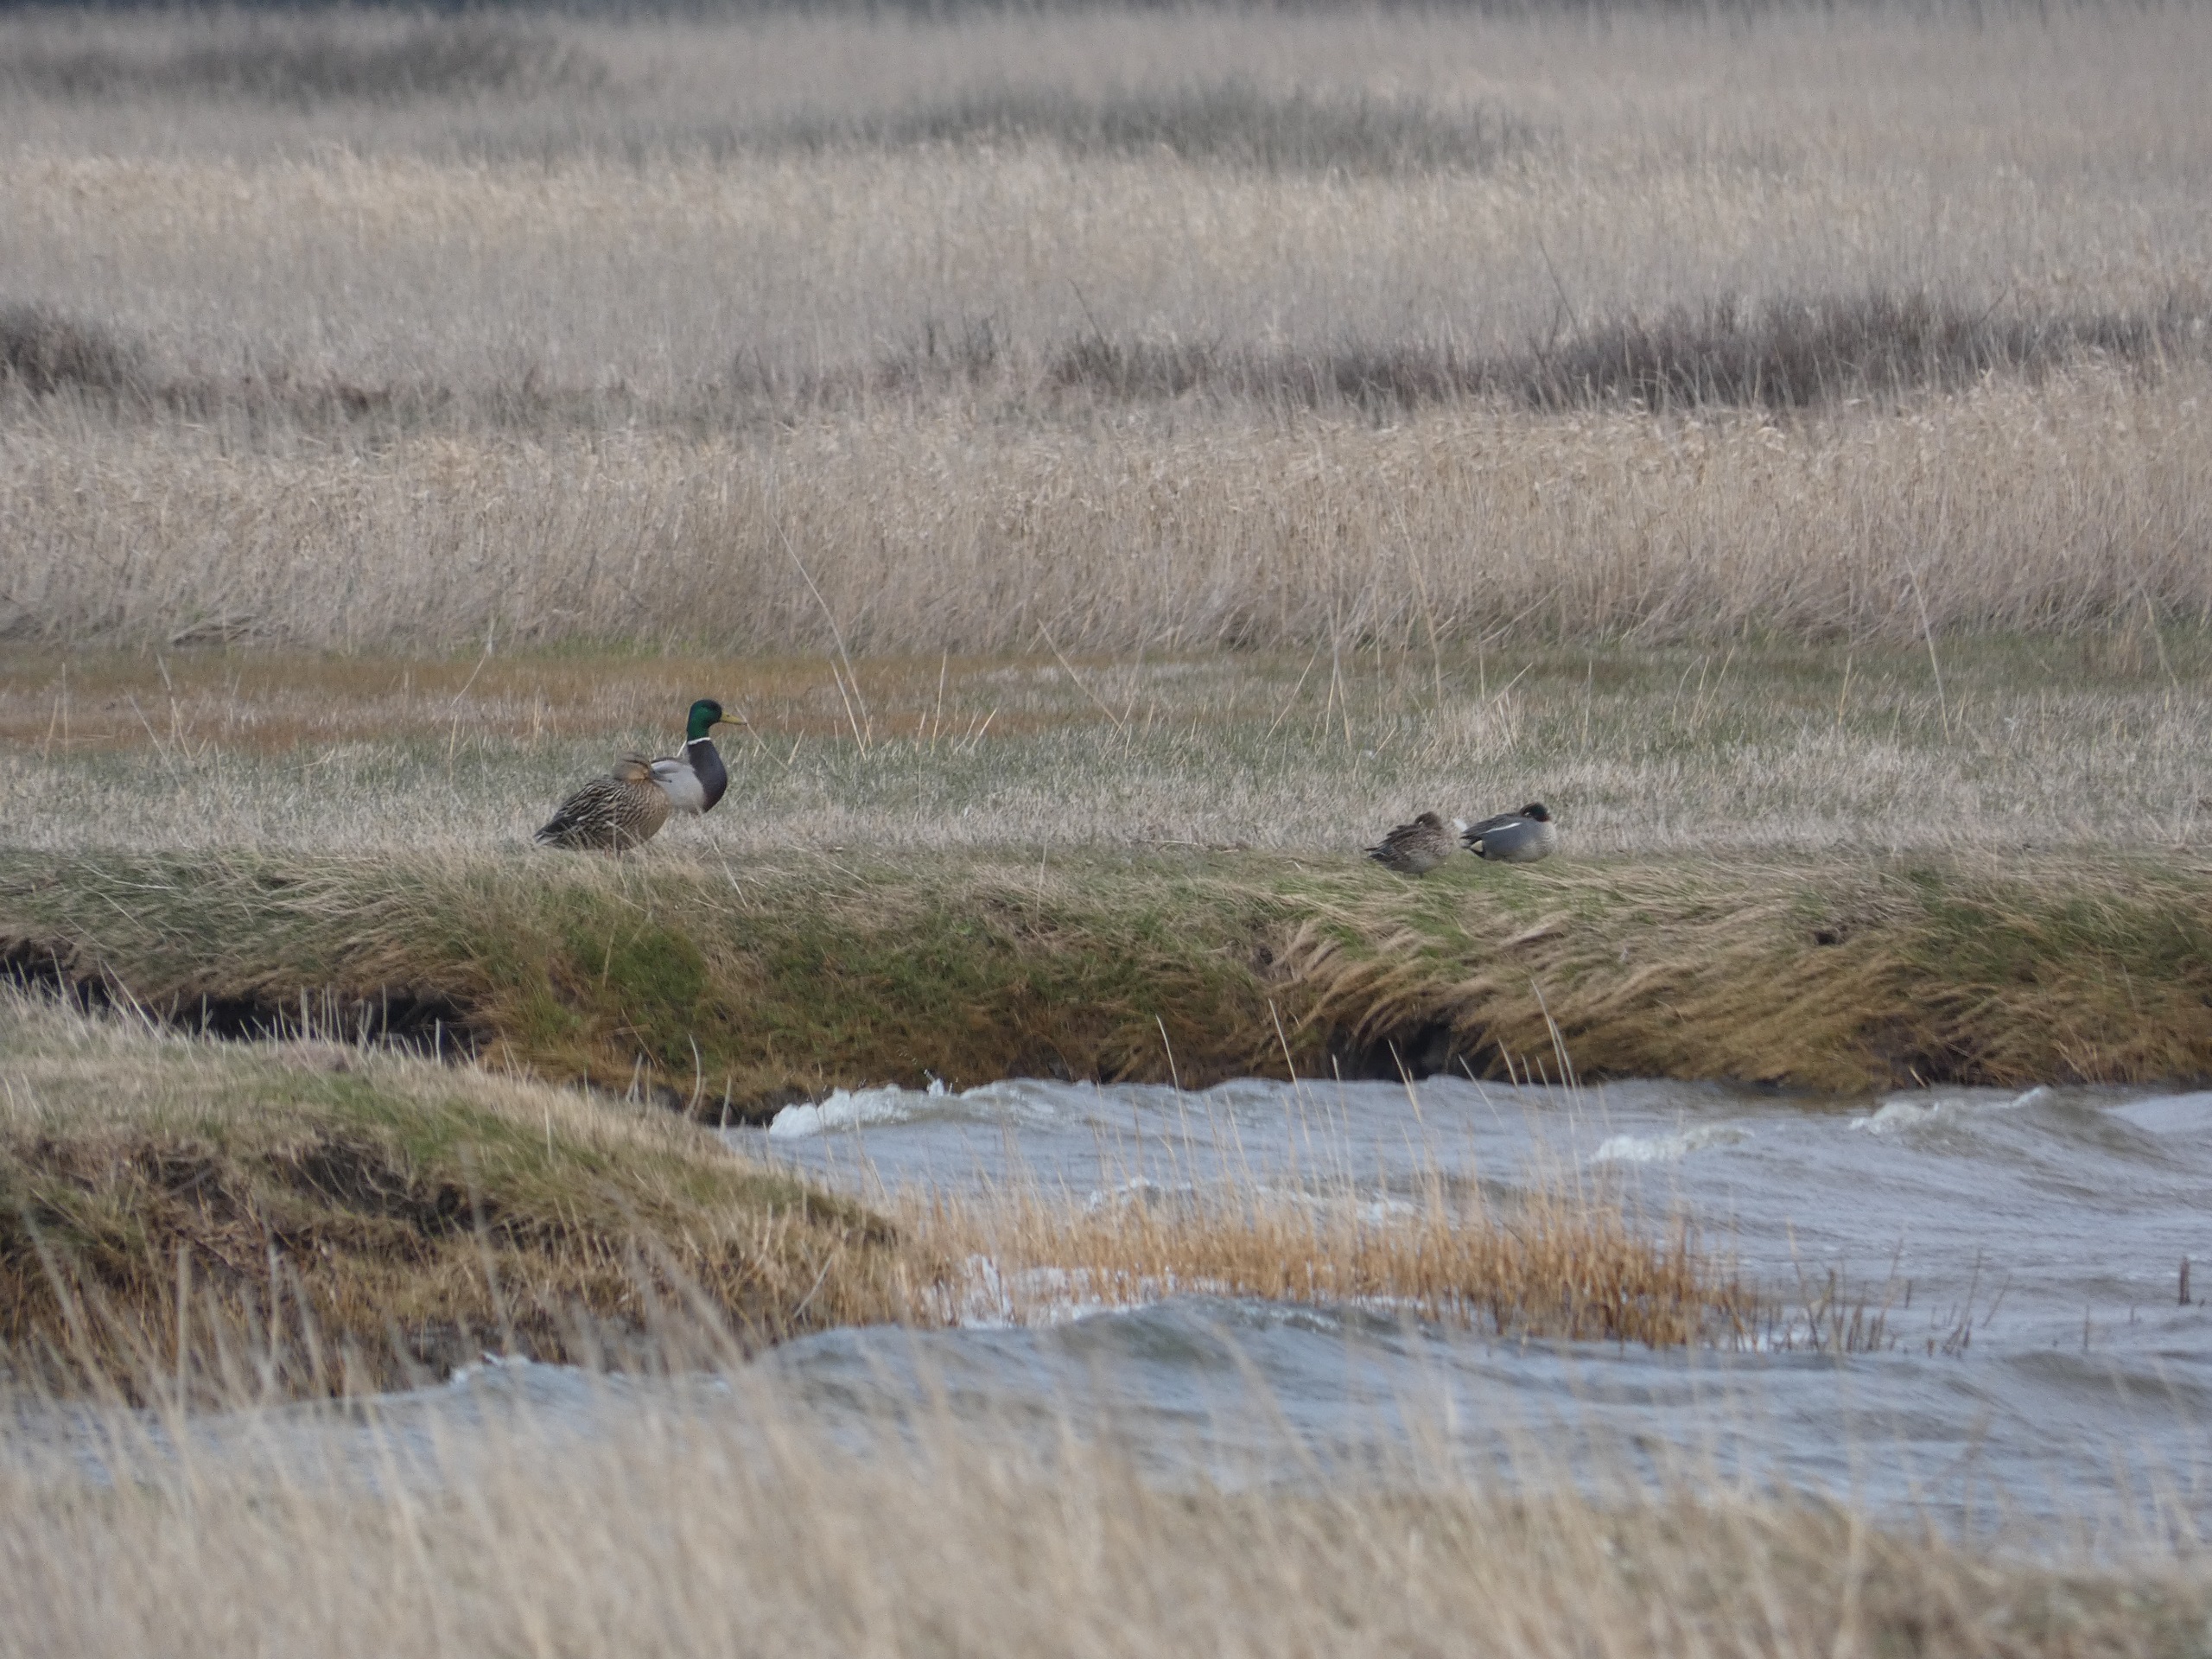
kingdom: Animalia
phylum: Chordata
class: Aves
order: Anseriformes
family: Anatidae
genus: Anas
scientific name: Anas platyrhynchos
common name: Gråand
